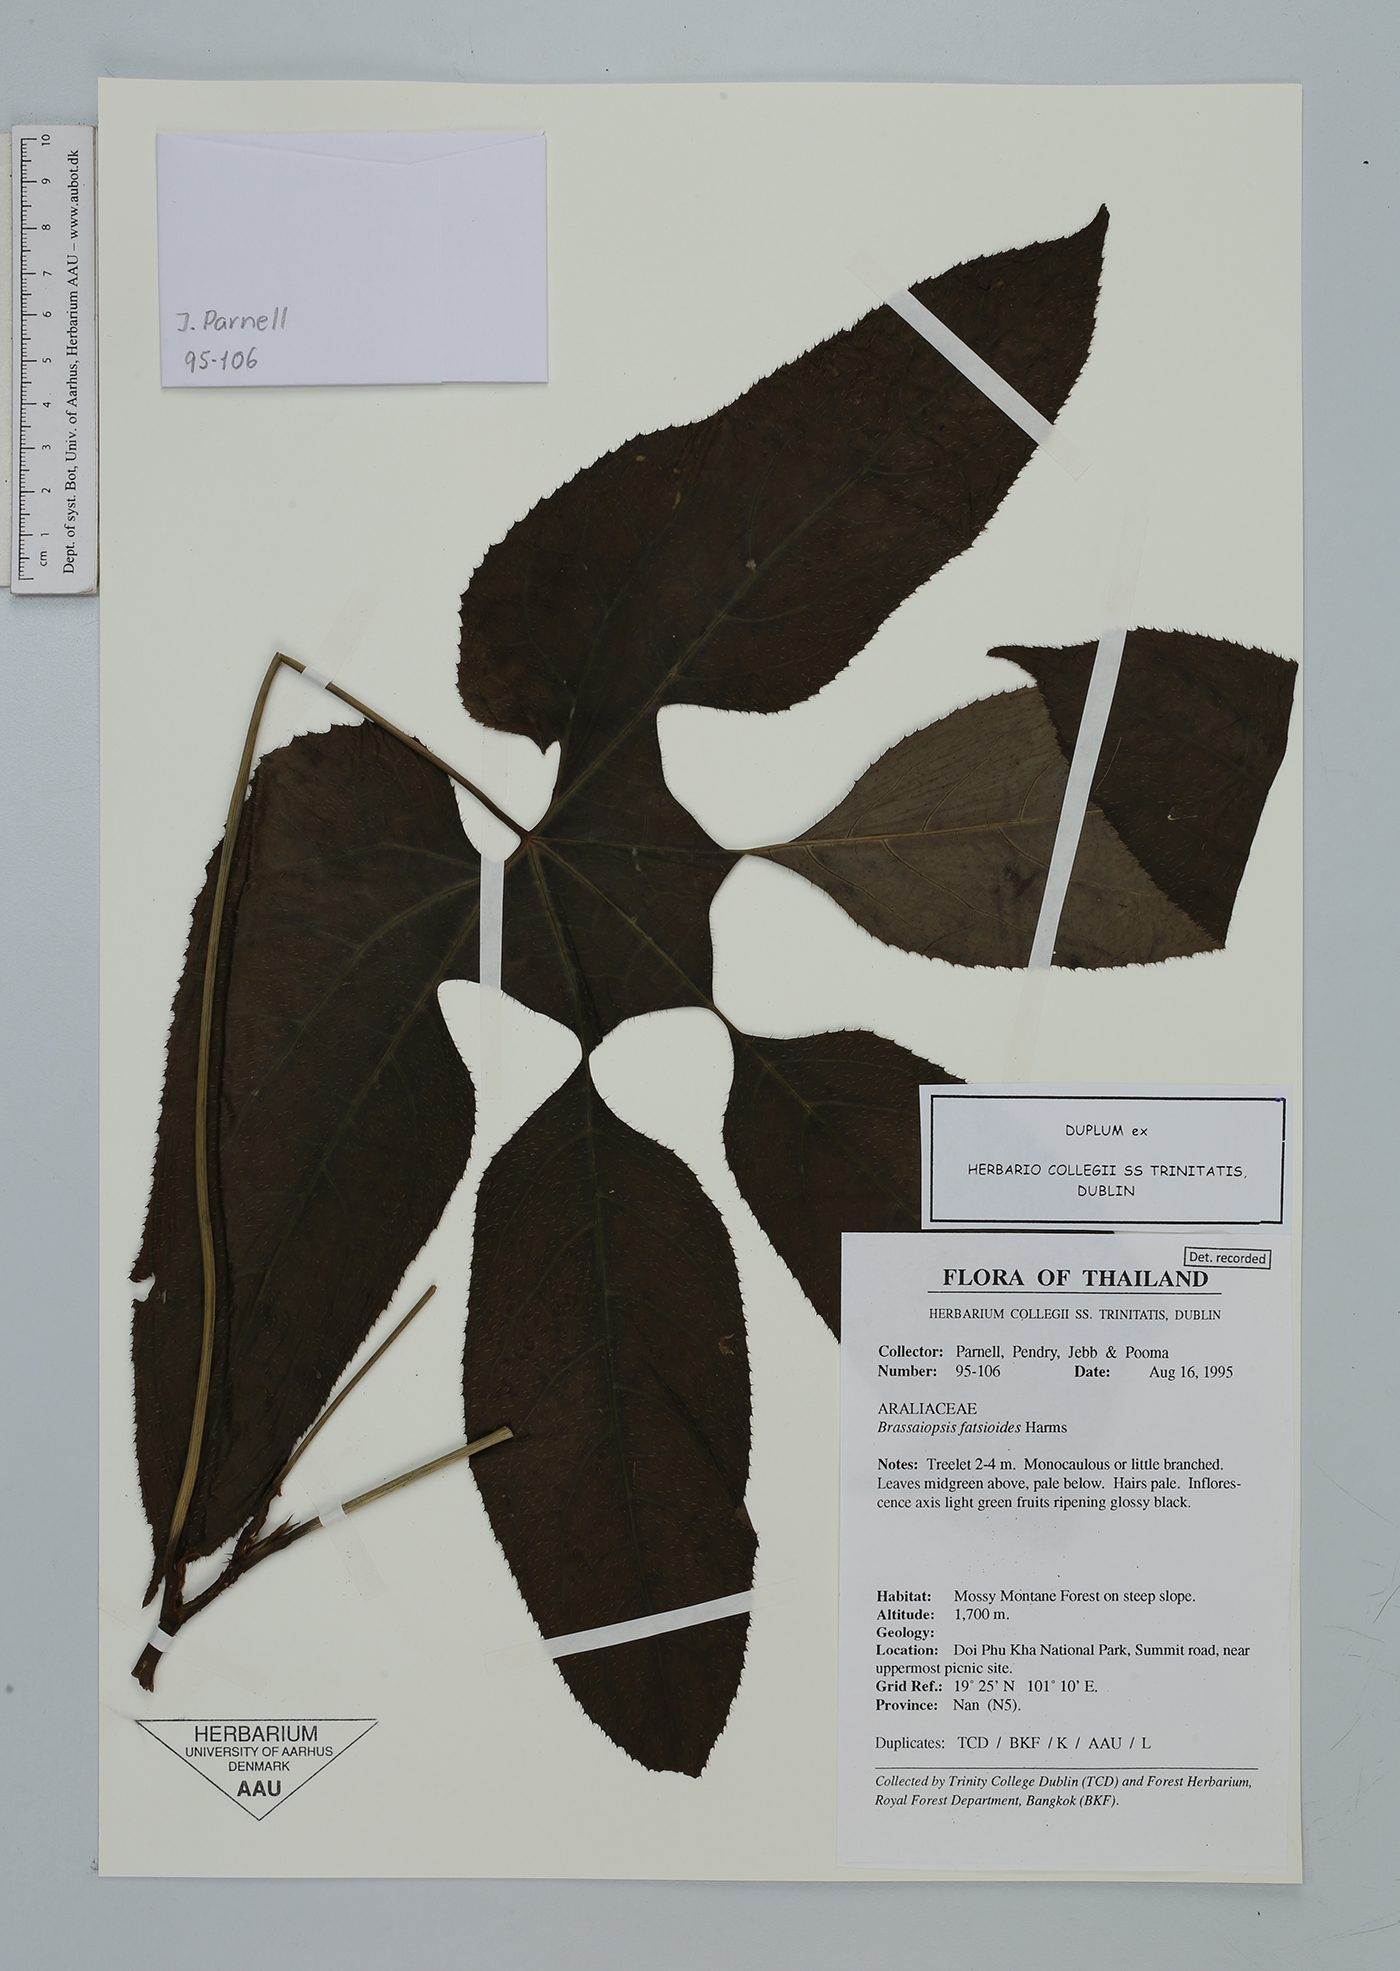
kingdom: Plantae
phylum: Tracheophyta
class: Magnoliopsida
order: Apiales
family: Araliaceae
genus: Brassaiopsis
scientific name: Brassaiopsis ciliata
